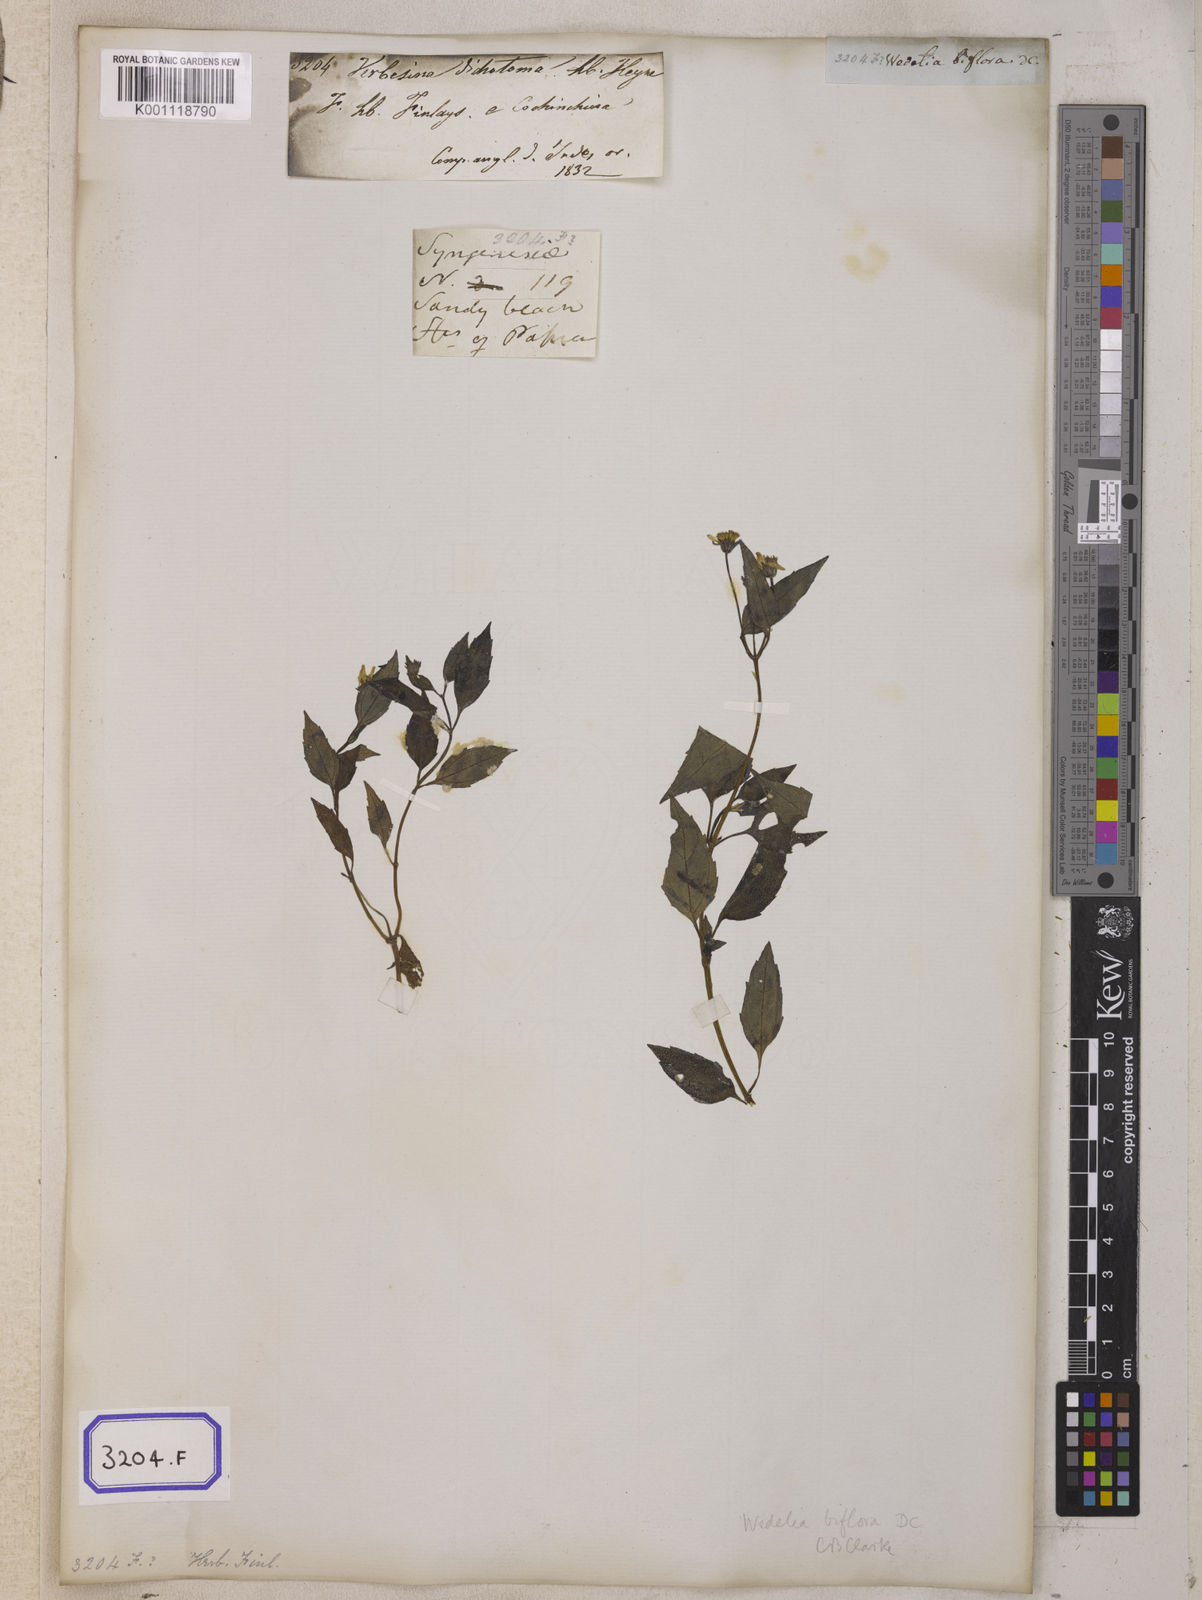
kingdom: Plantae
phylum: Tracheophyta
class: Magnoliopsida
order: Asterales
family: Asteraceae
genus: Blainvillea
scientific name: Blainvillea acmella
